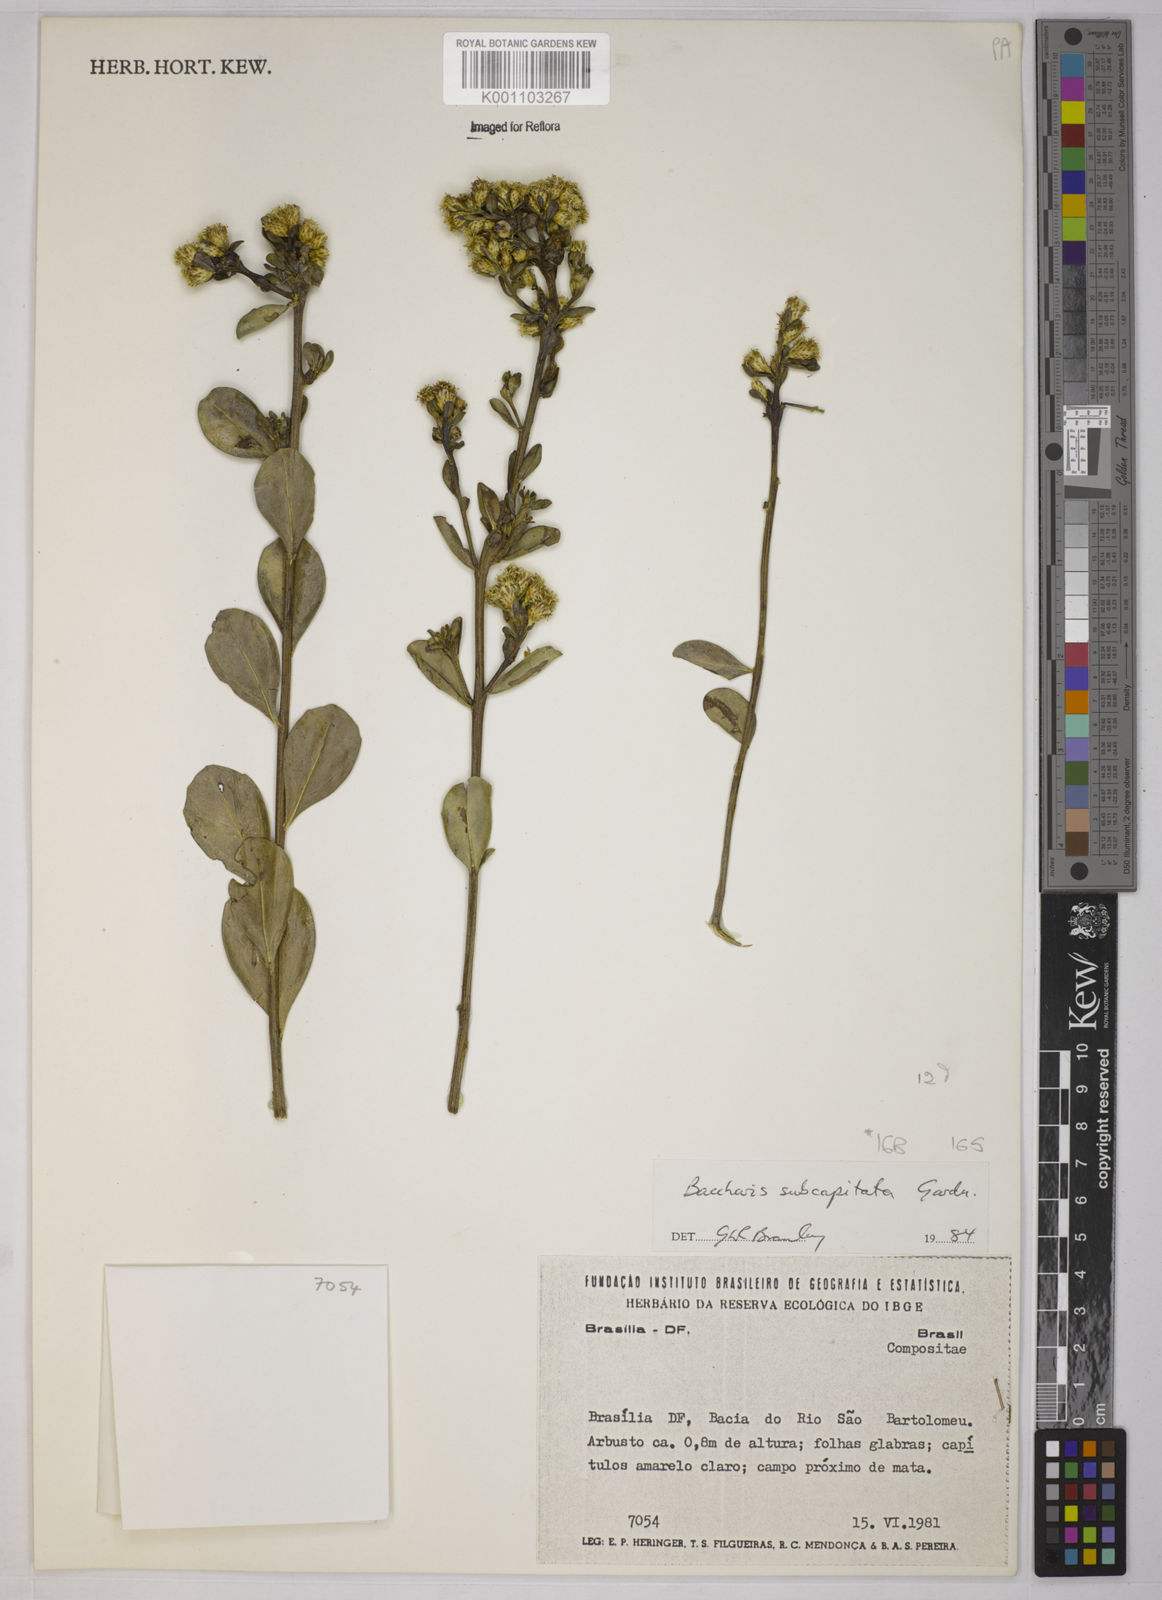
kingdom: Plantae
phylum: Tracheophyta
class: Magnoliopsida
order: Asterales
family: Asteraceae
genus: Baccharis
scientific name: Baccharis tridentata
